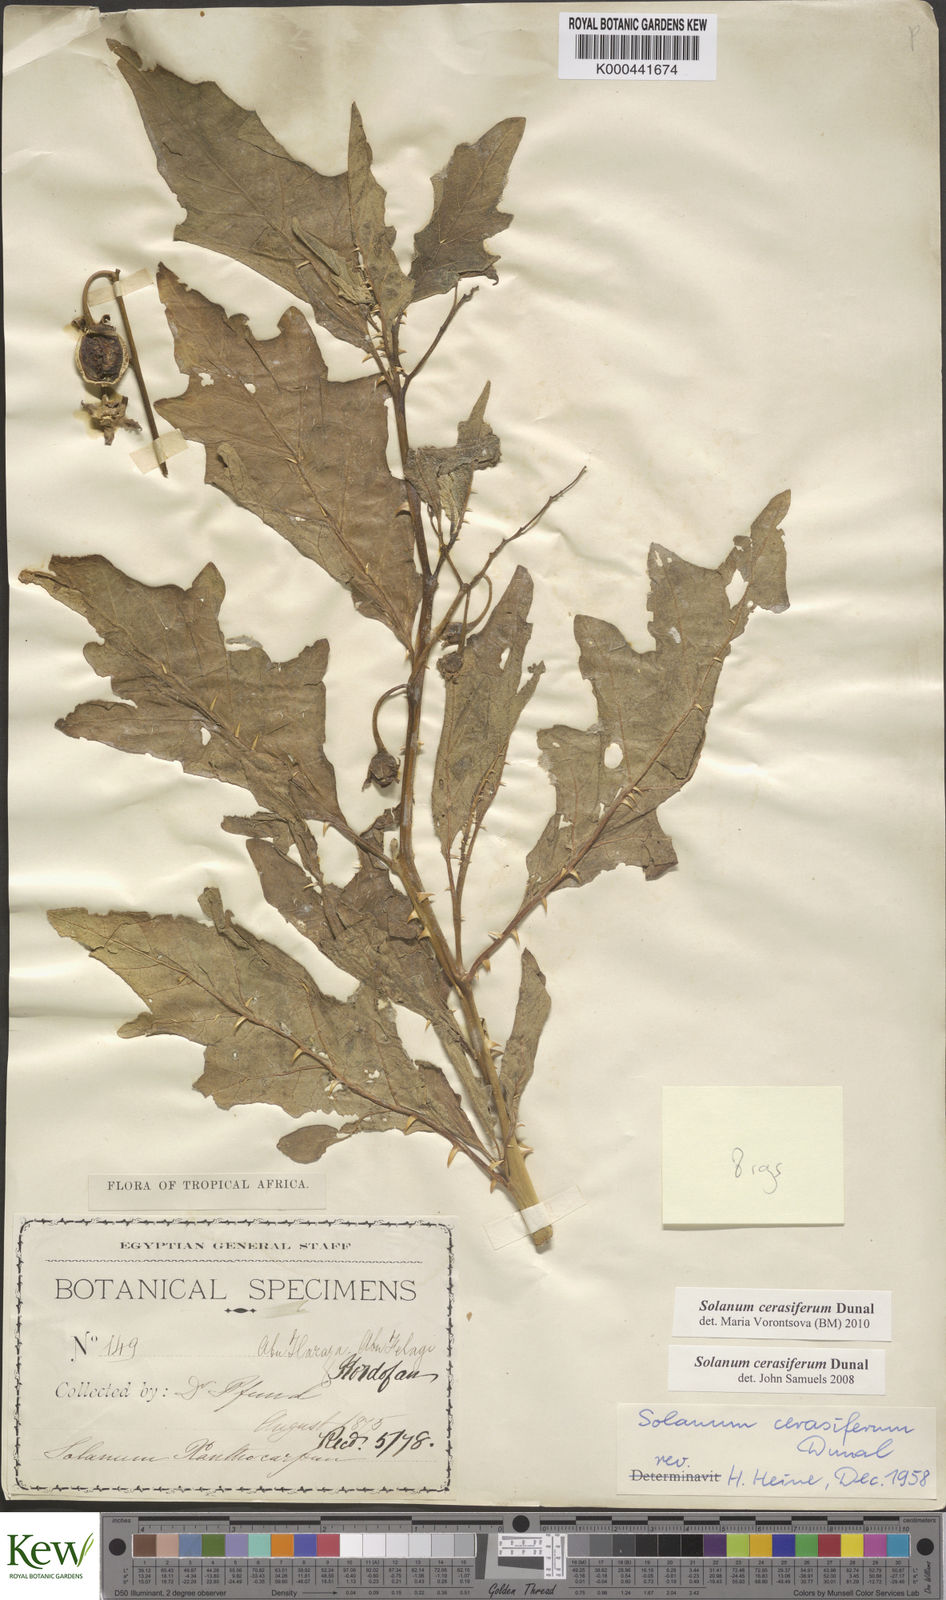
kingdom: Plantae
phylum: Tracheophyta
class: Magnoliopsida
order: Solanales
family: Solanaceae
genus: Solanum
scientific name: Solanum cerasiferum
